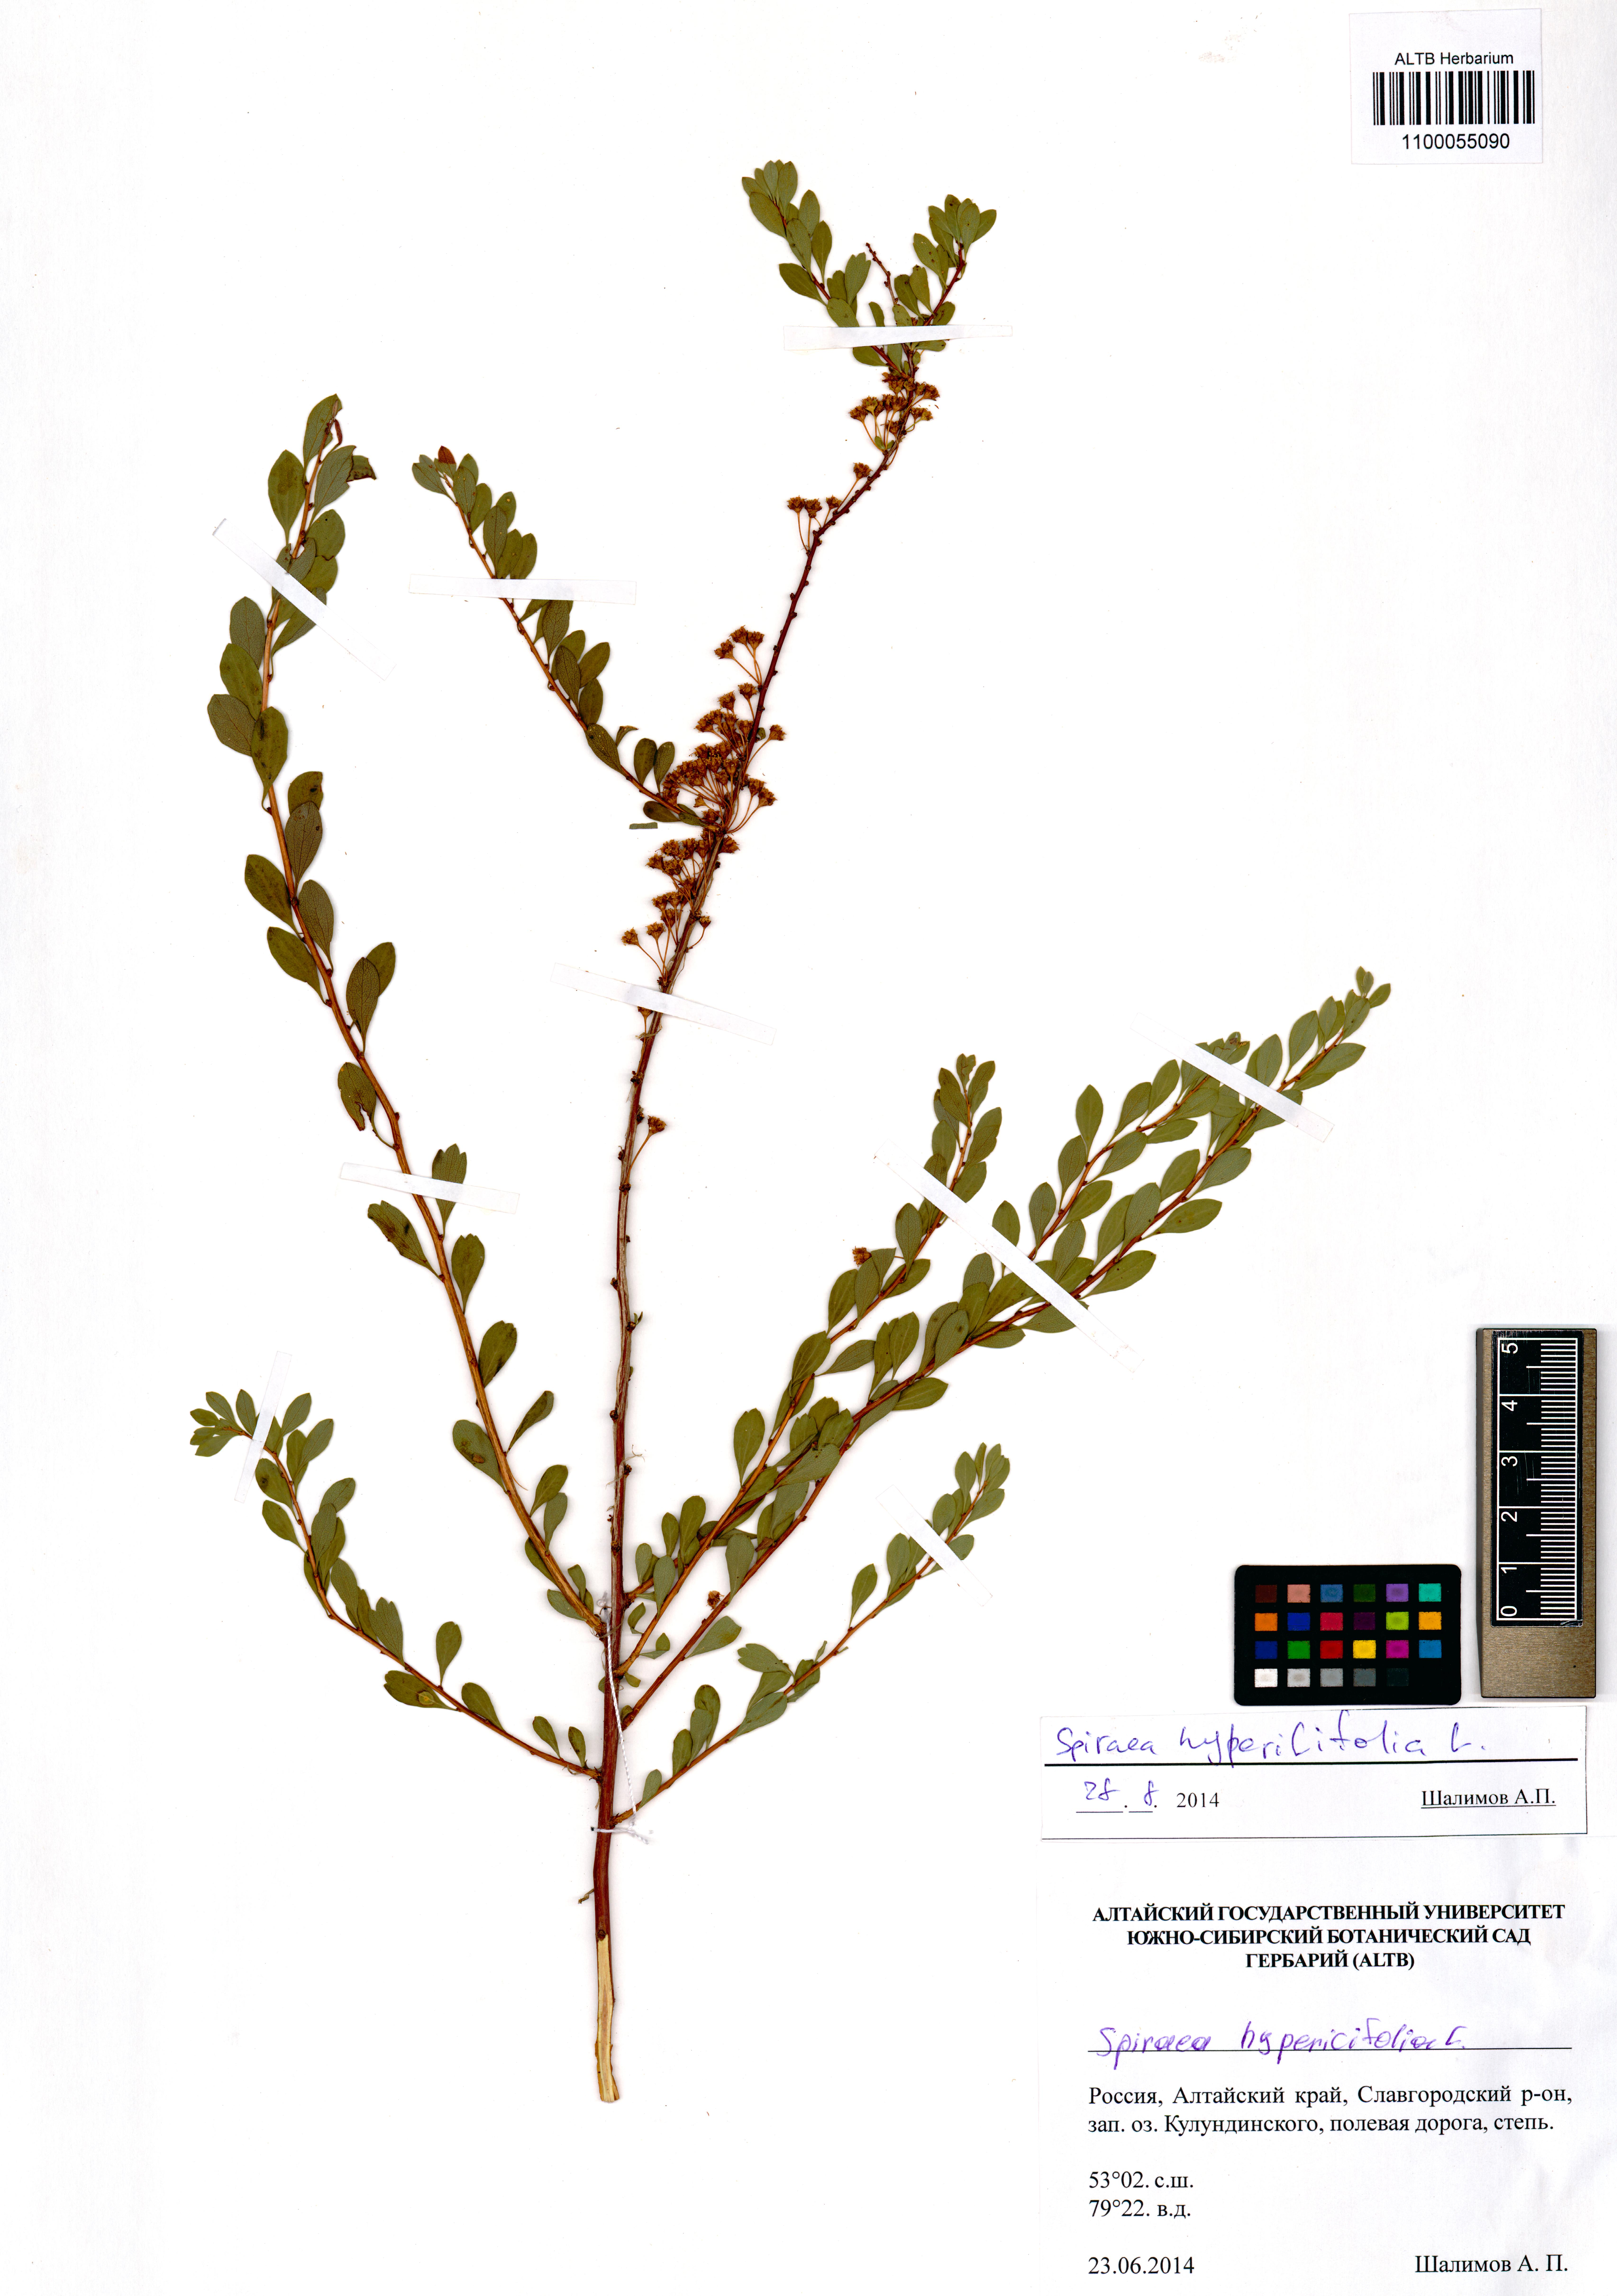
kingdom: Plantae
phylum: Tracheophyta
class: Magnoliopsida
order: Rosales
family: Rosaceae
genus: Spiraea
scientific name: Spiraea hypericifolia
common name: Iberian spirea
